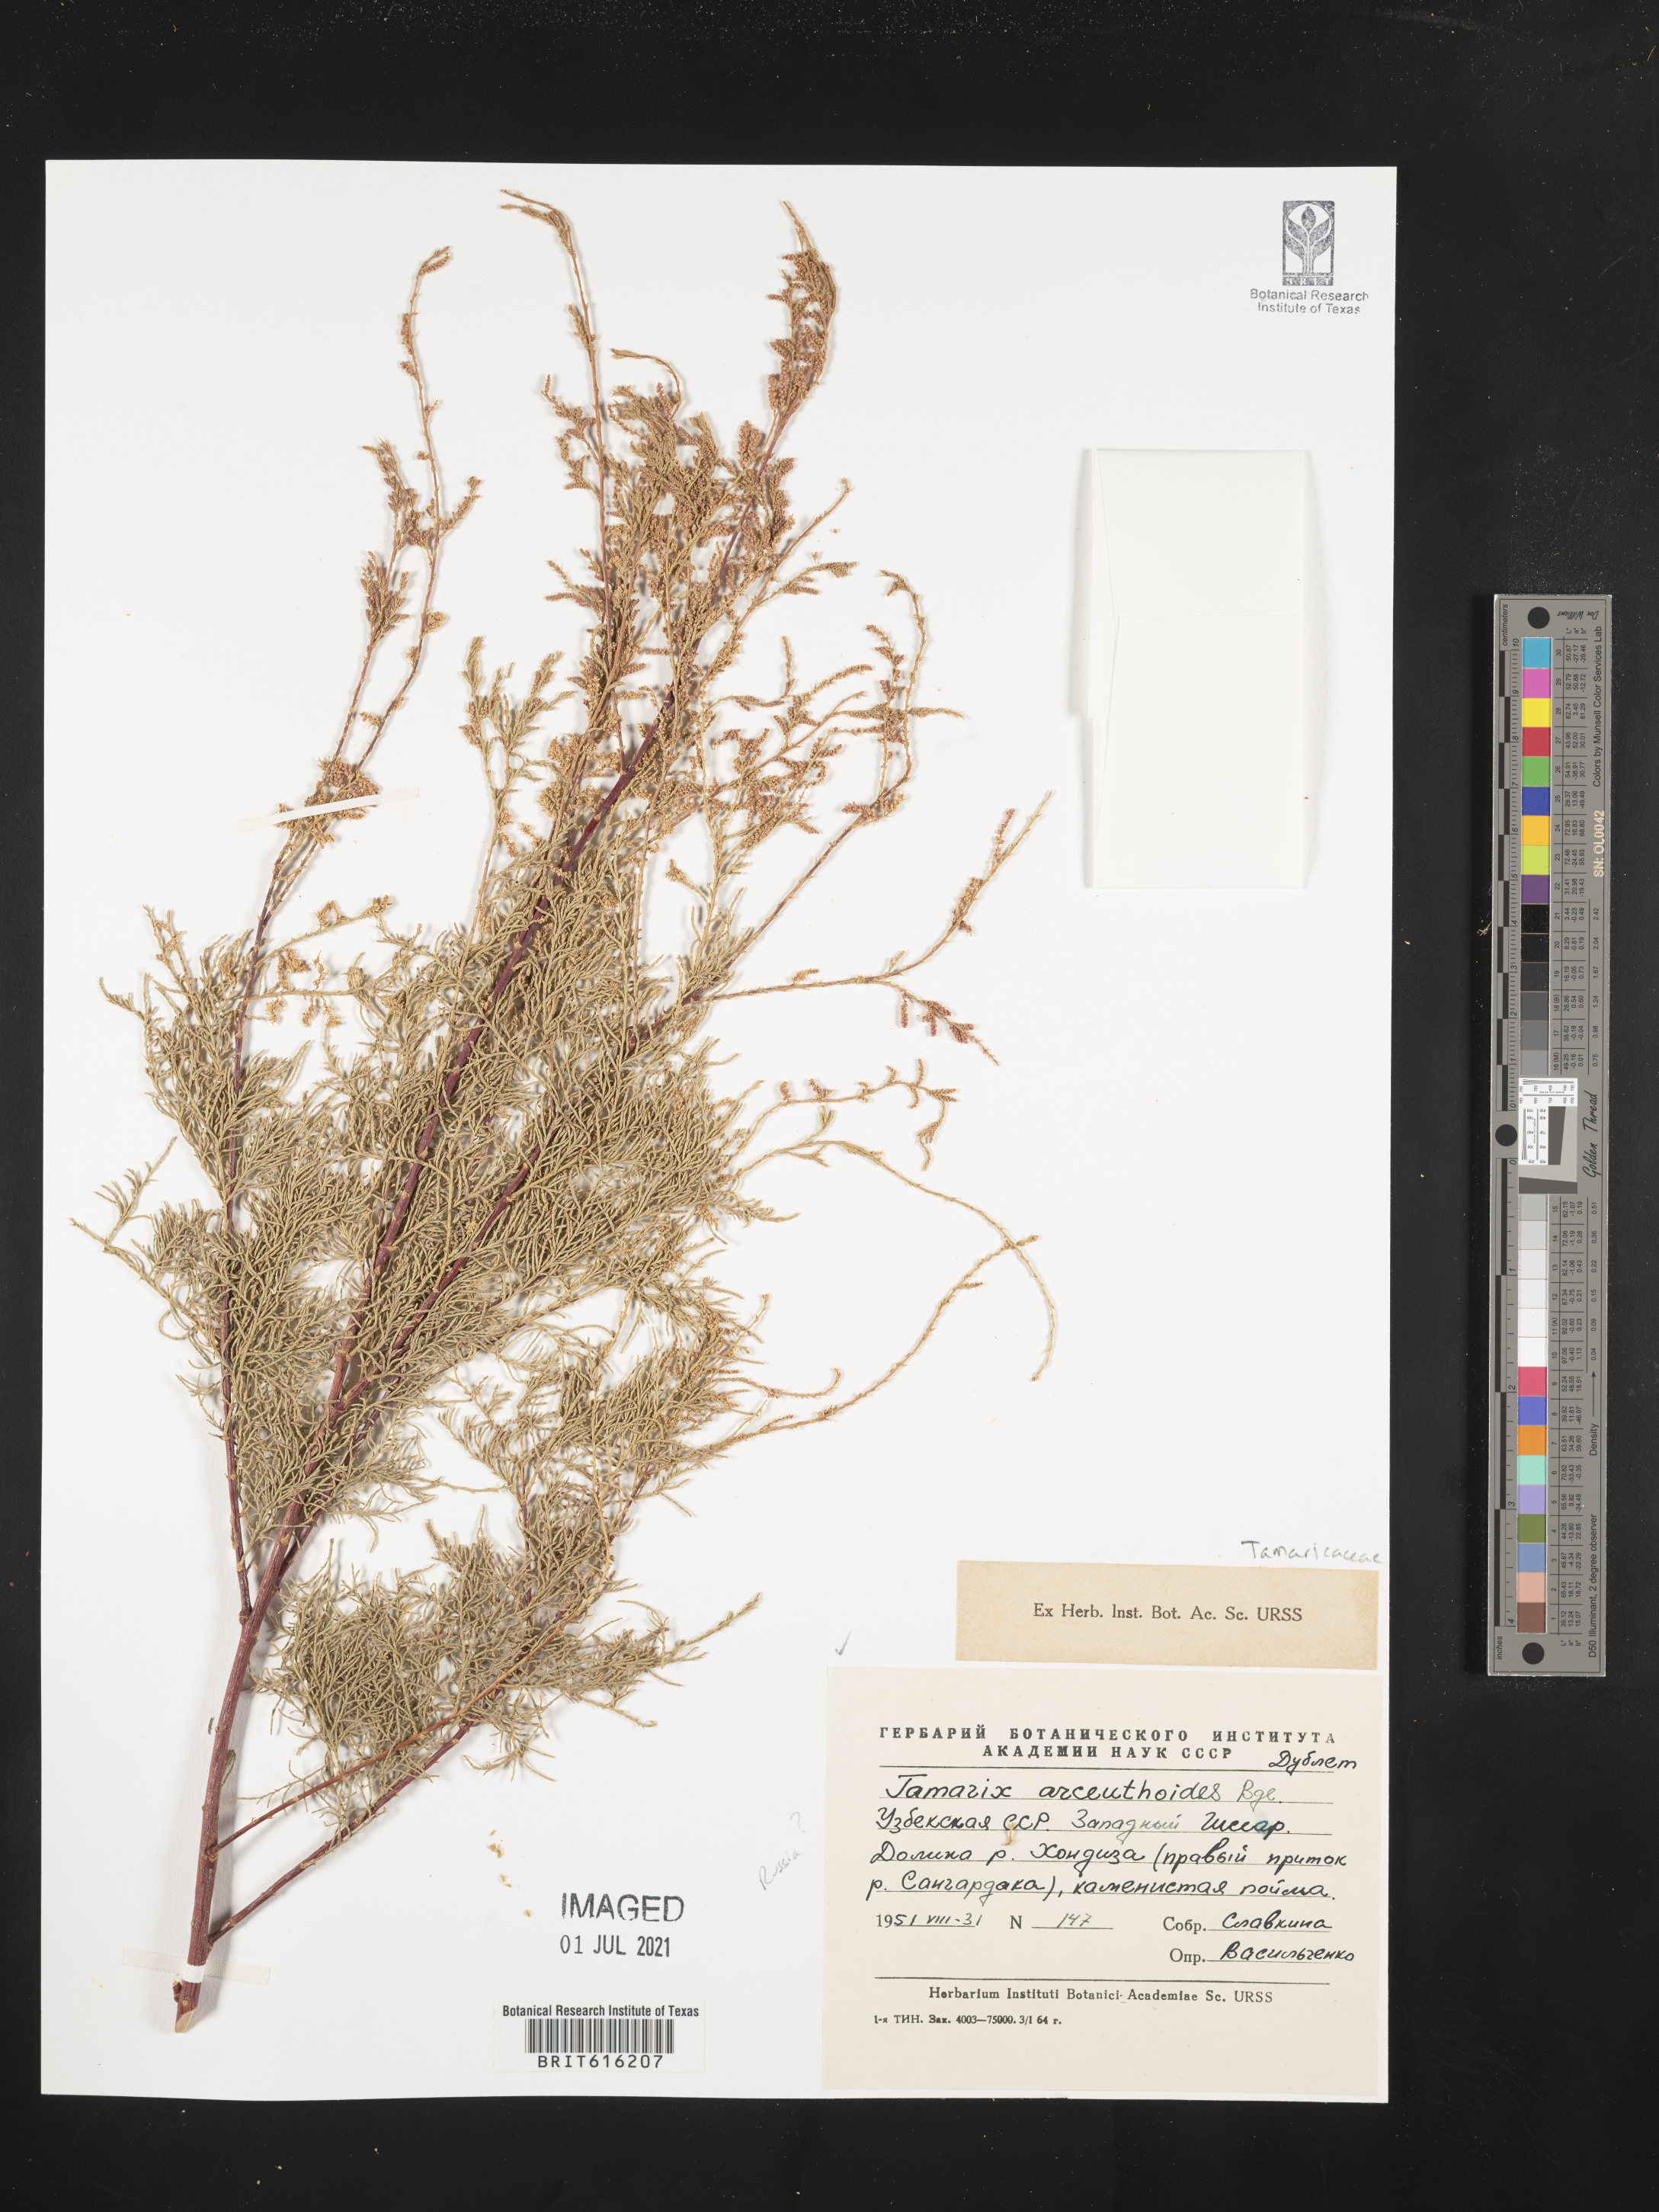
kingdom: Plantae
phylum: Tracheophyta
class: Magnoliopsida
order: Caryophyllales
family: Tamaricaceae
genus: Tamarix
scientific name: Tamarix arceuthoides
